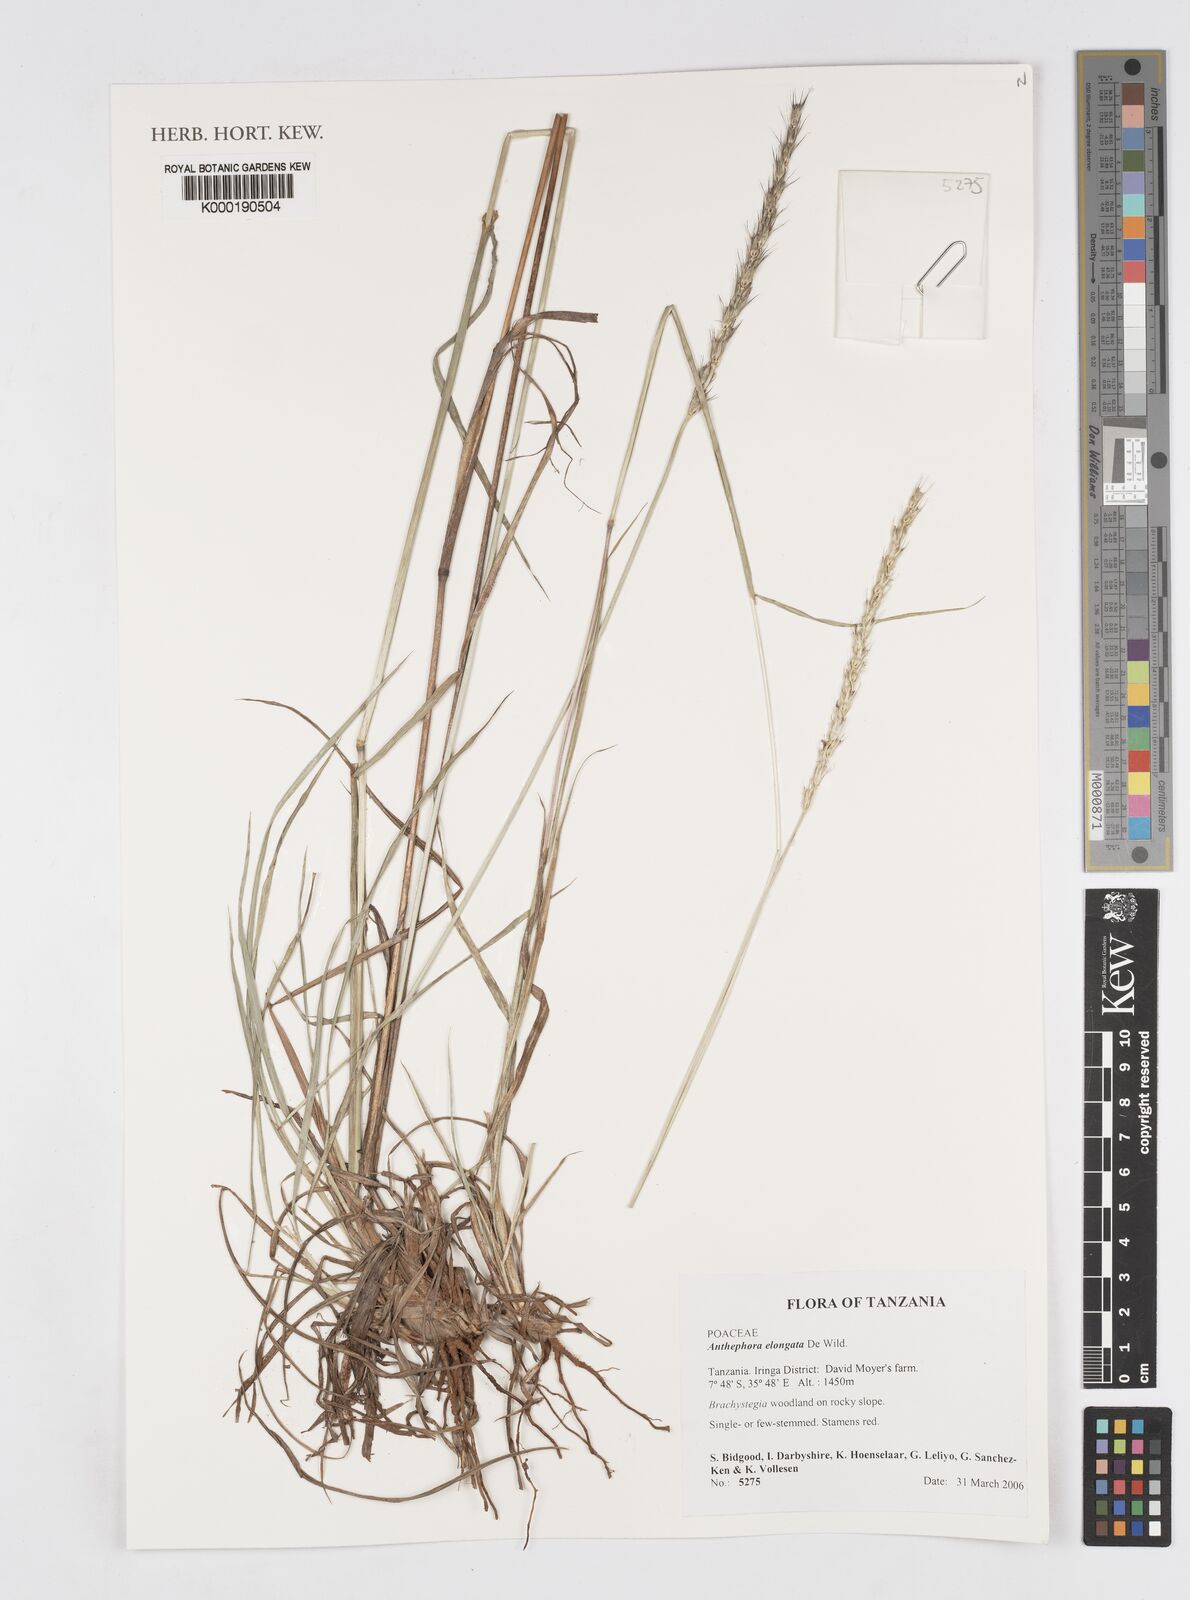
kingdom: Plantae
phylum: Tracheophyta
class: Liliopsida
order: Poales
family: Poaceae
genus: Anthephora
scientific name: Anthephora elongata
